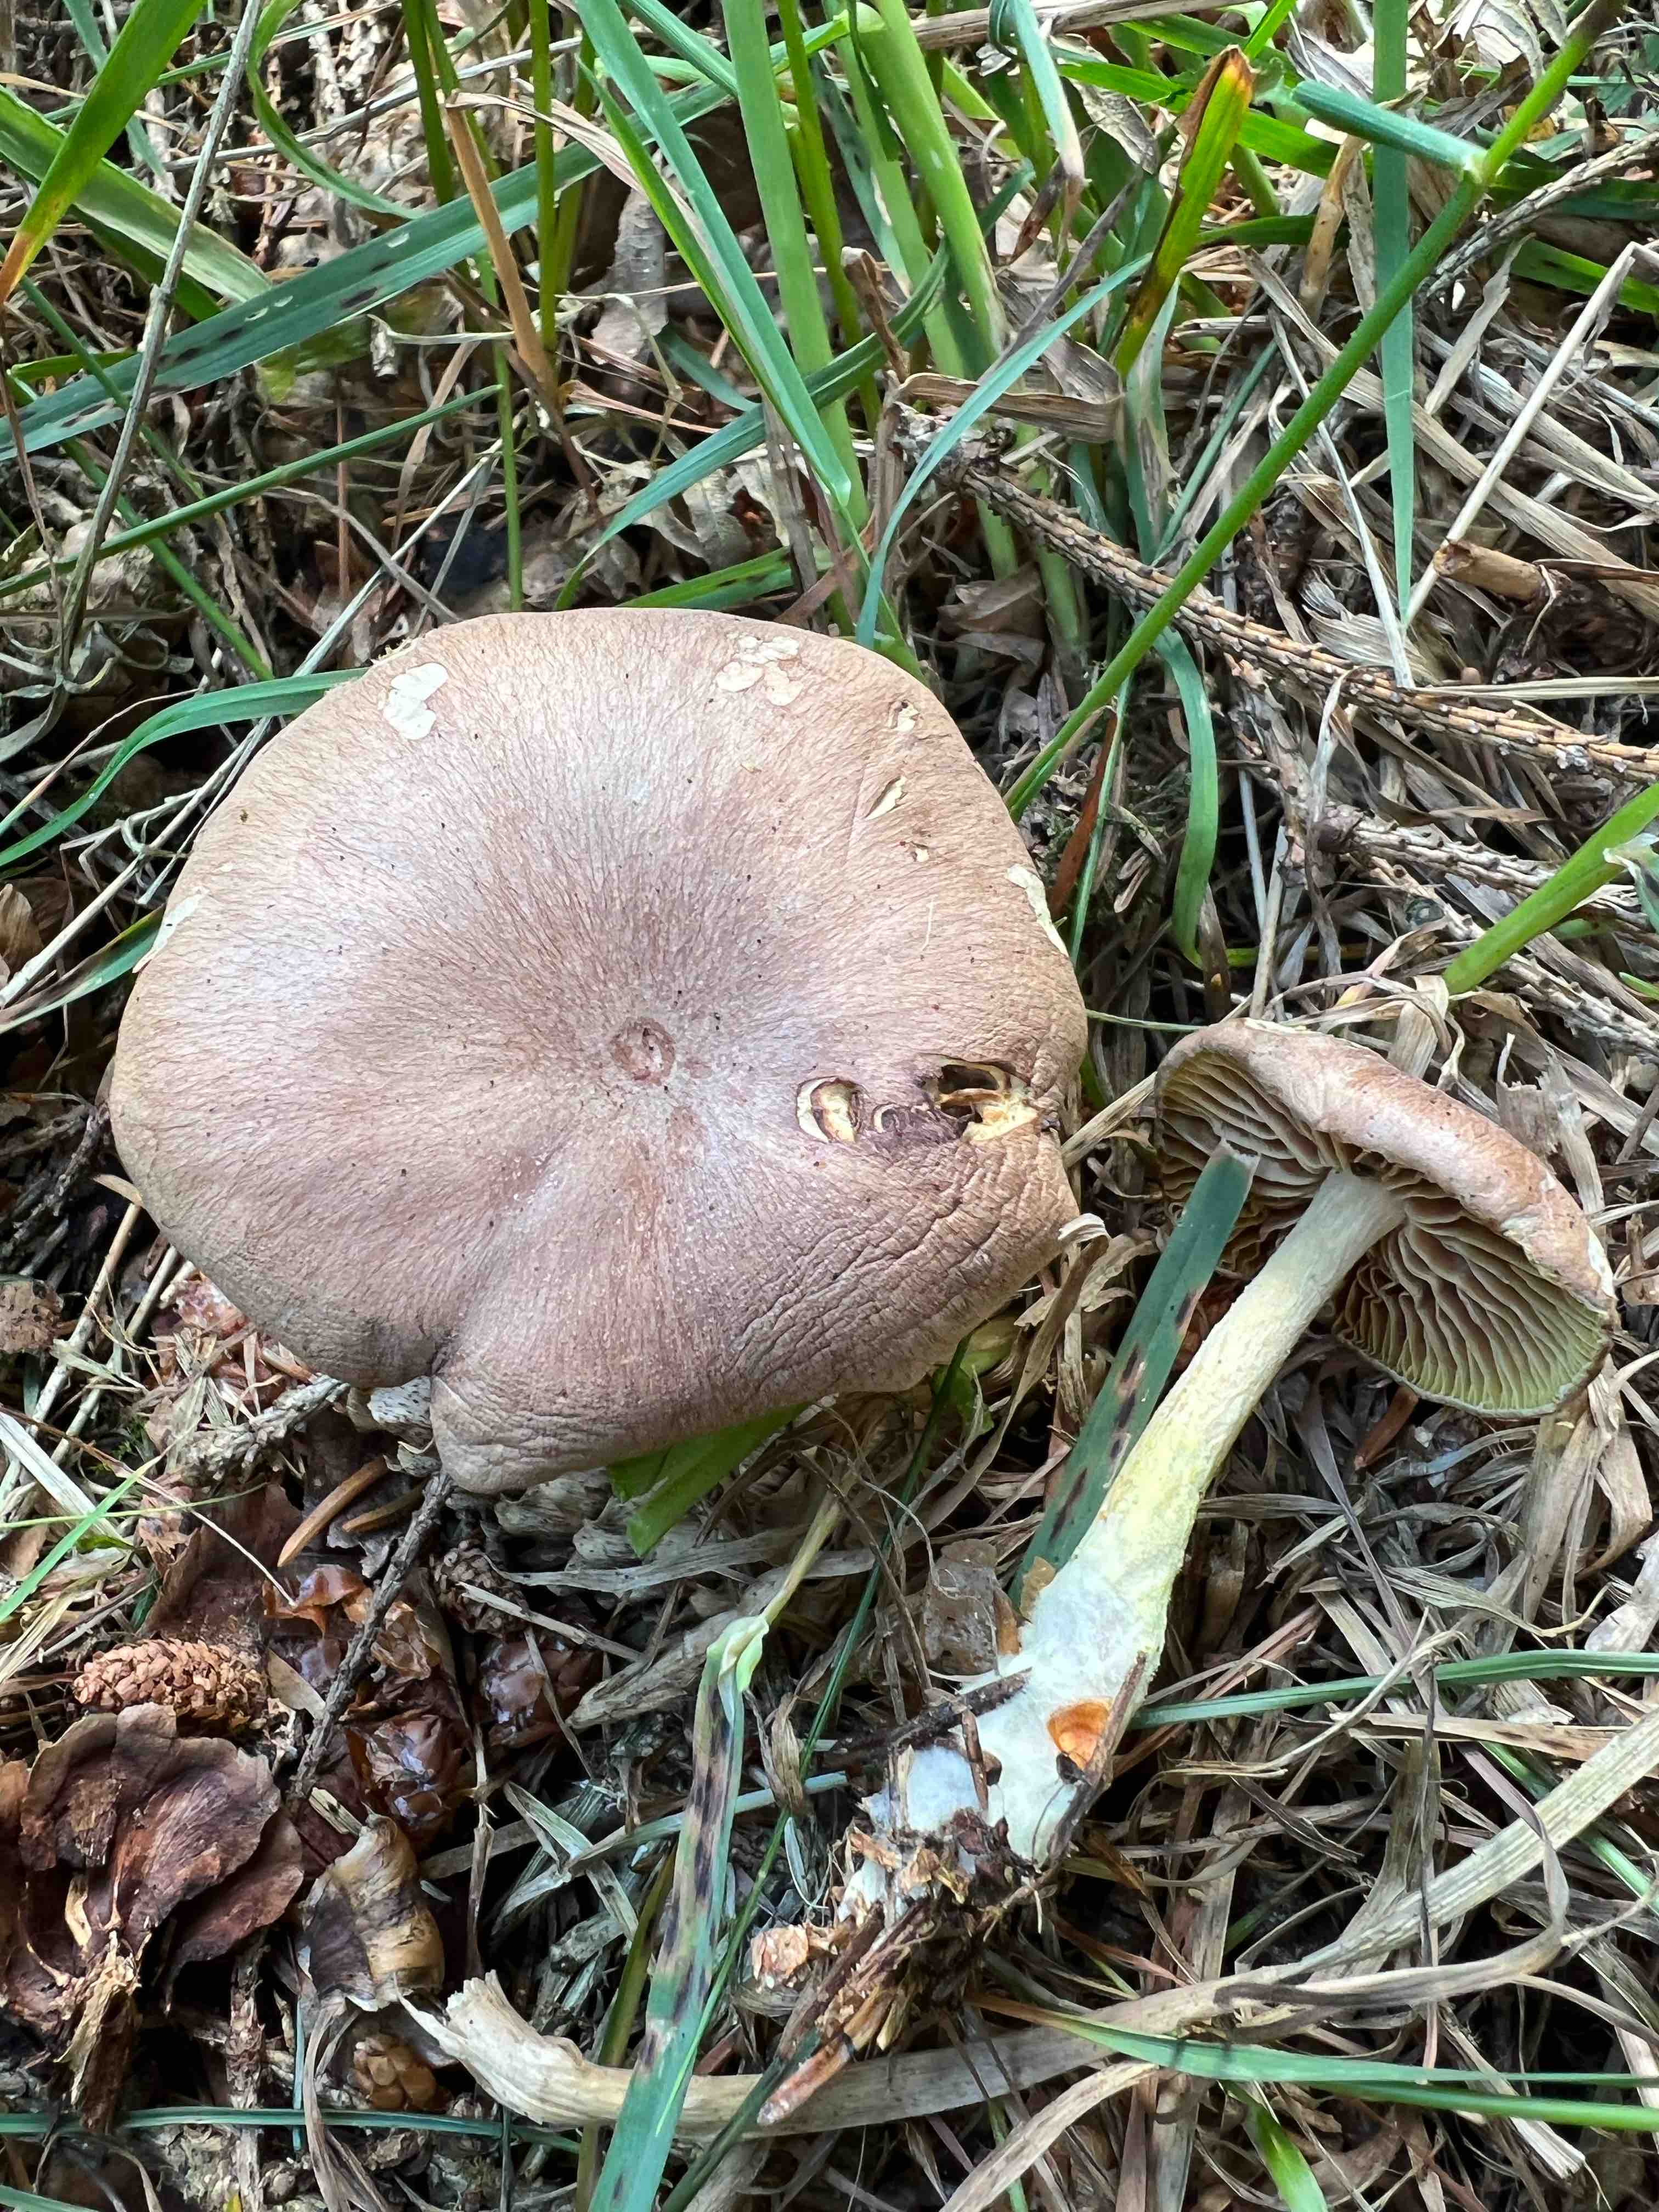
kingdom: Fungi
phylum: Basidiomycota
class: Agaricomycetes
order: Agaricales
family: Omphalotaceae
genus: Collybiopsis
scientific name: Collybiopsis peronata
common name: bestøvlet fladhat
